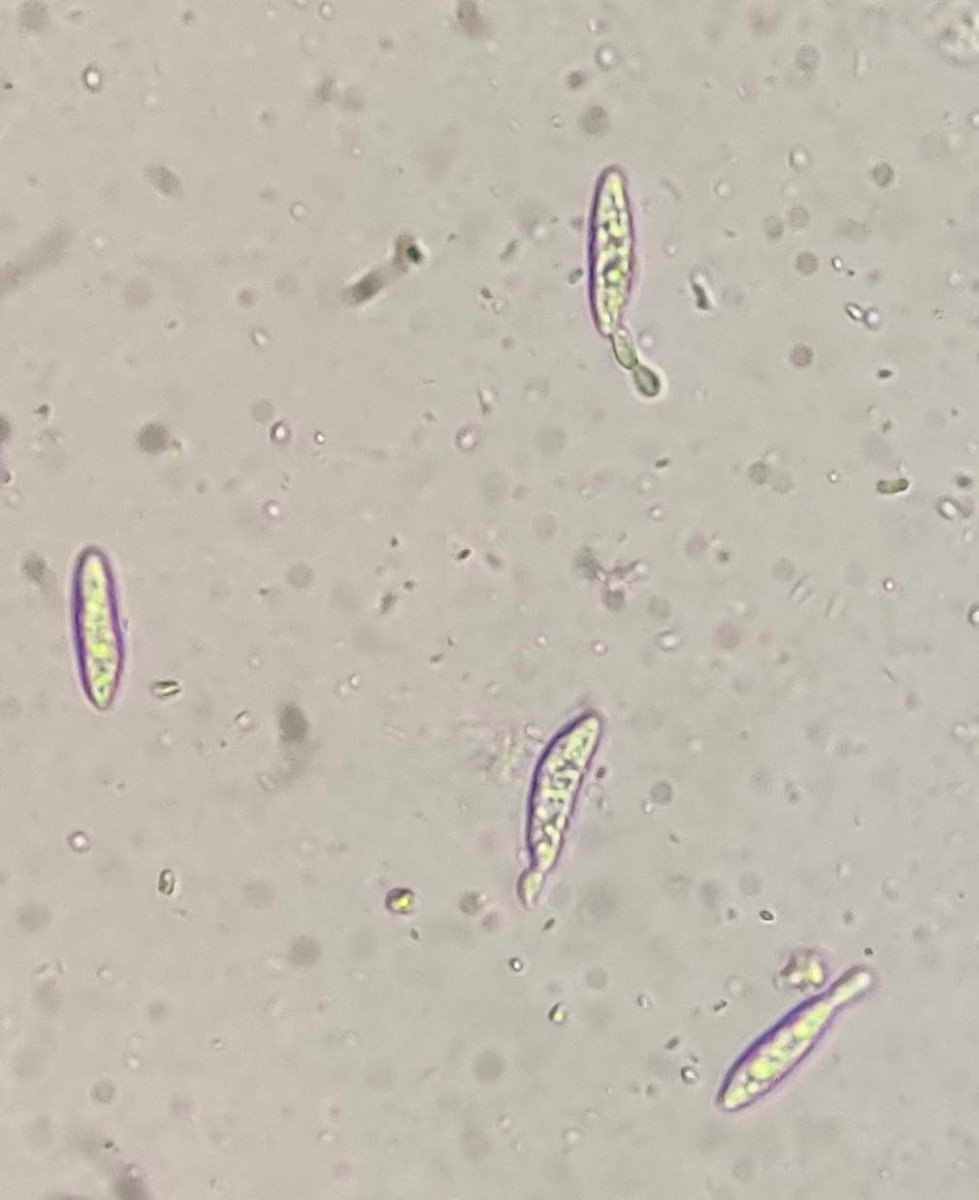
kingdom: Fungi
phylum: Ascomycota
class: Leotiomycetes
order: Helotiales
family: Gelatinodiscaceae
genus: Ascocoryne
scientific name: Ascocoryne sarcoides
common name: rødlilla sejskive
